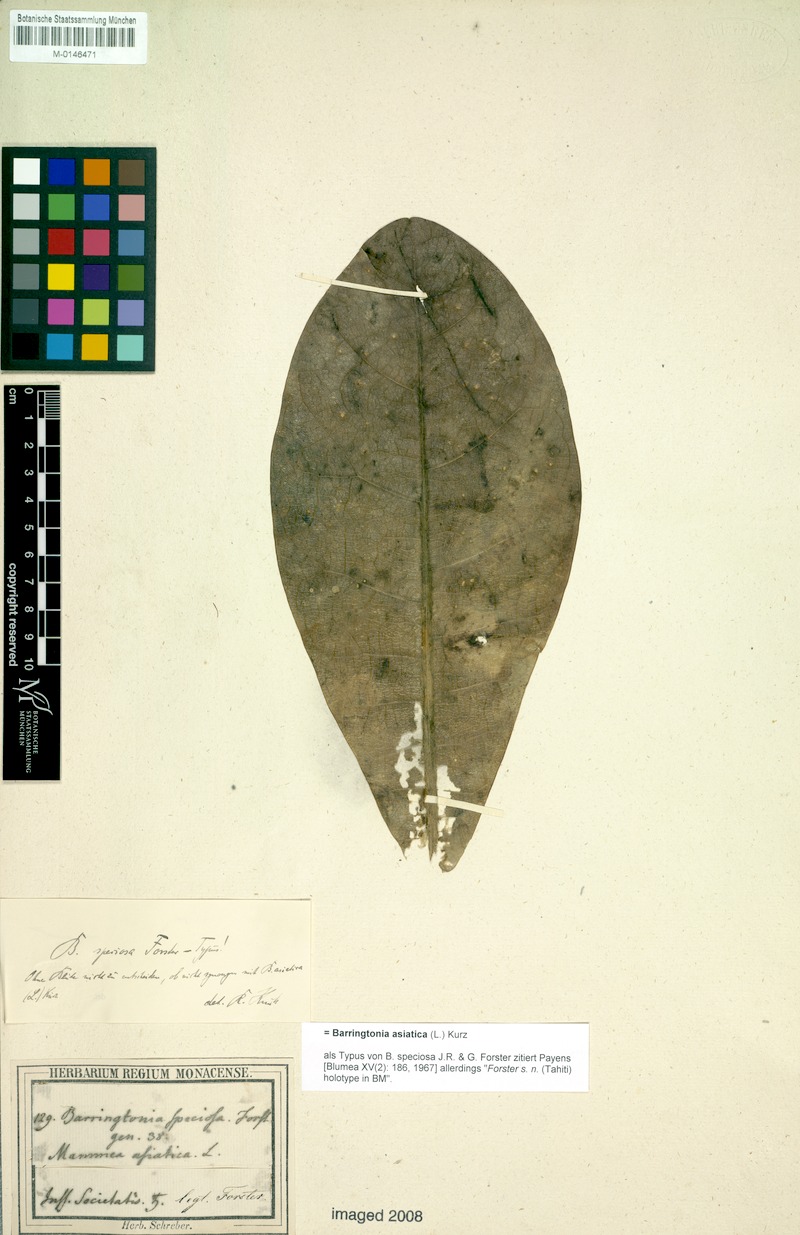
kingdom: Plantae
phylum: Tracheophyta
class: Magnoliopsida
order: Ericales
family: Lecythidaceae
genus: Barringtonia
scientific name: Barringtonia asiatica
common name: Mango-pine
